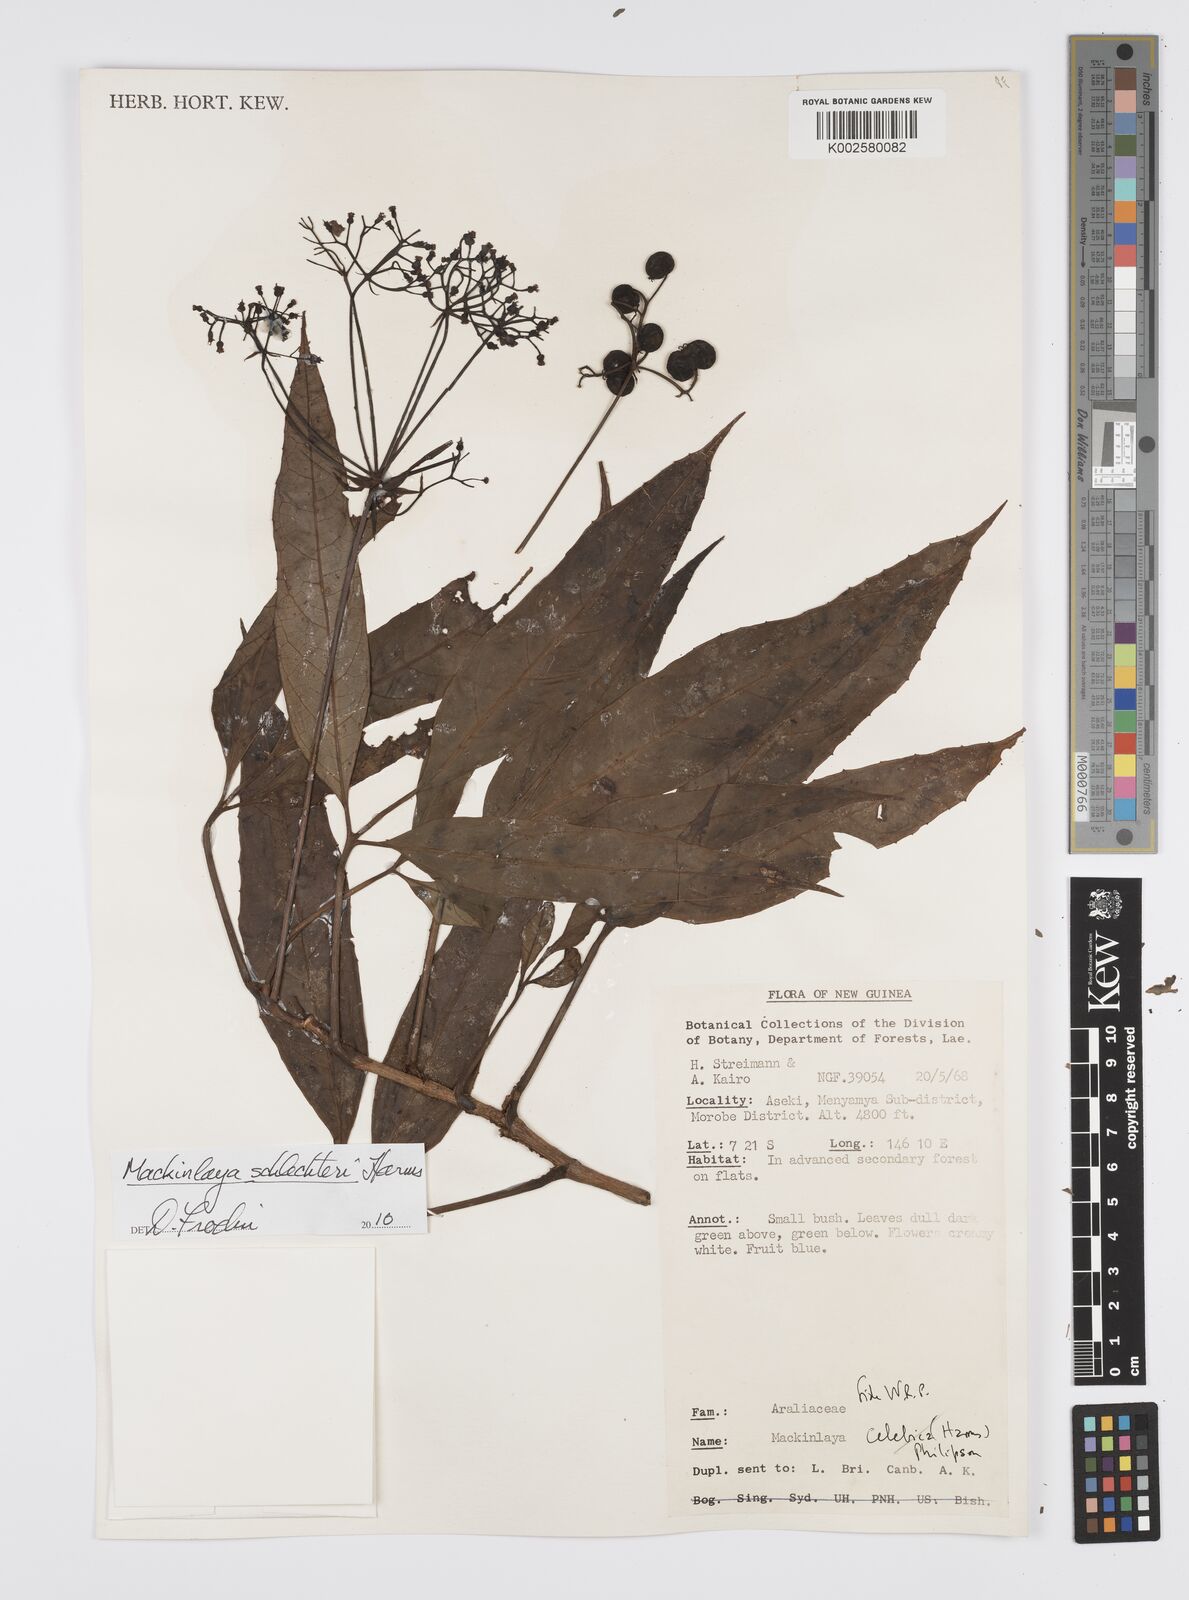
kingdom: Plantae
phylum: Tracheophyta
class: Magnoliopsida
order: Apiales
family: Apiaceae
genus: Mackinlaya
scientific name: Mackinlaya schlechteri
